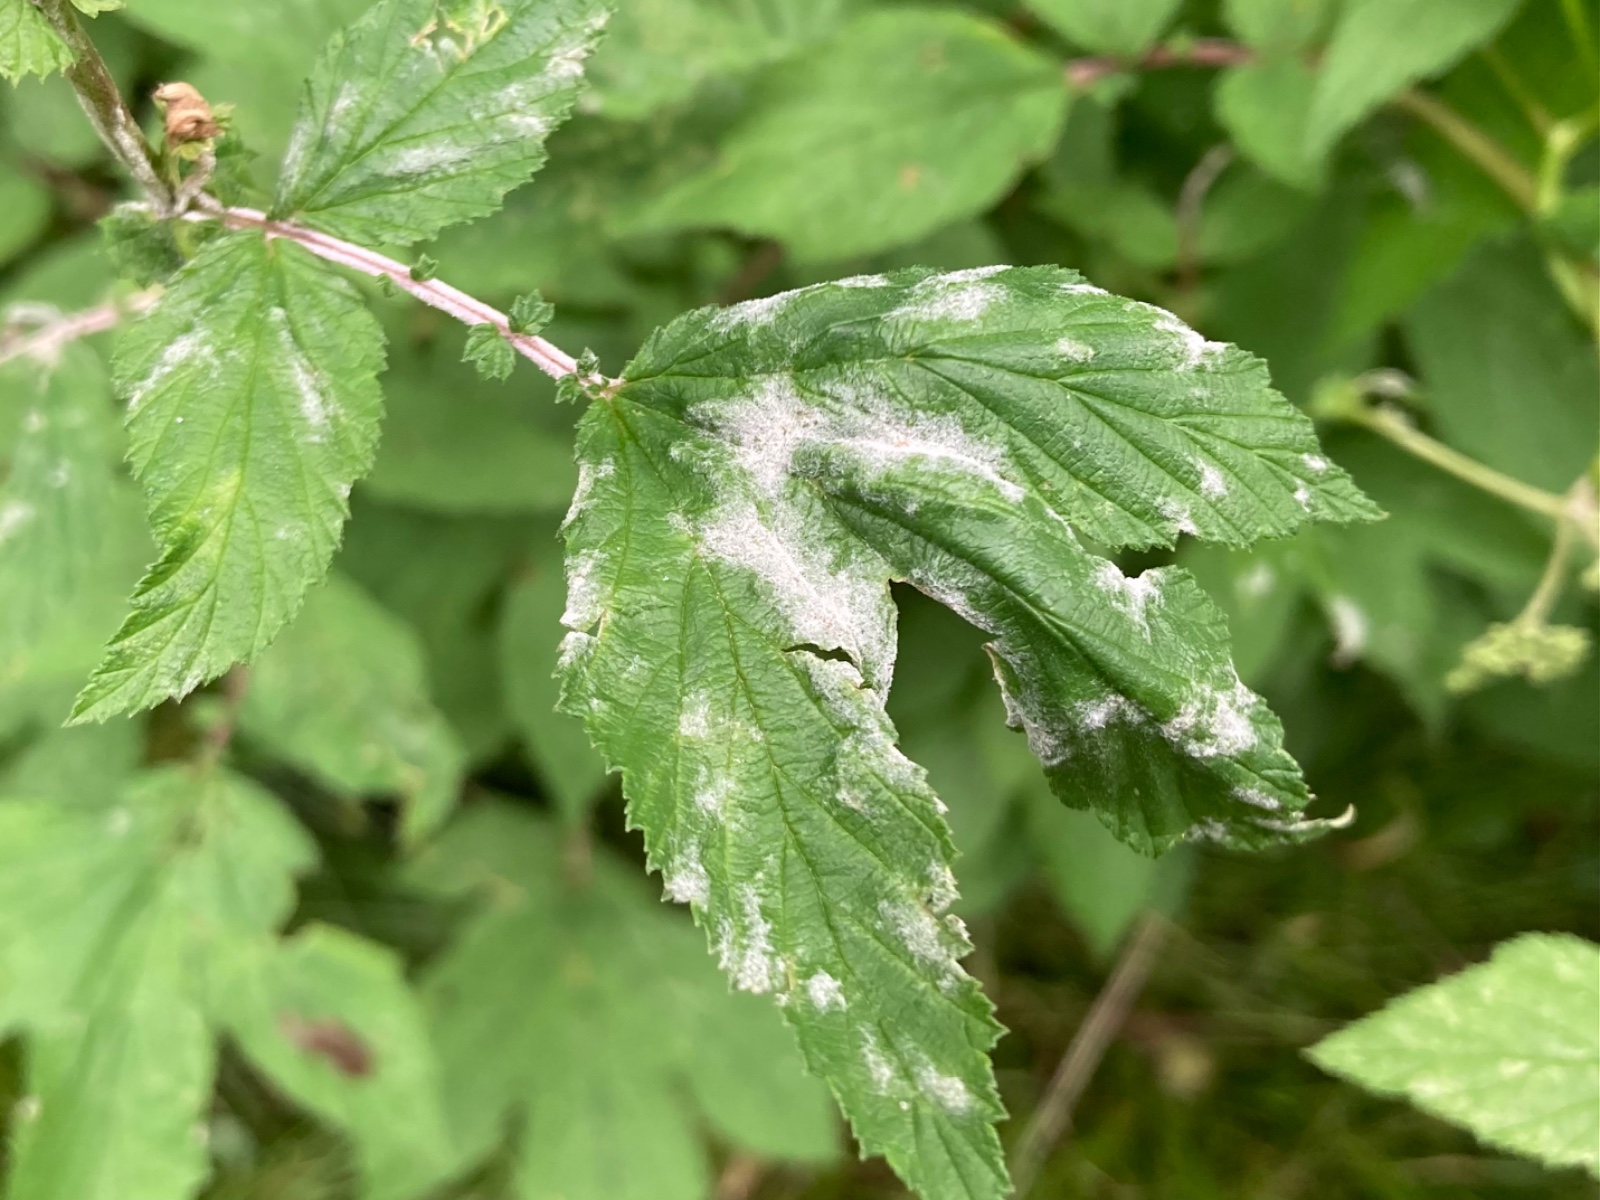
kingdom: Fungi
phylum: Ascomycota
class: Leotiomycetes
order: Helotiales
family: Erysiphaceae
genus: Podosphaera
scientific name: Podosphaera filipendulae
